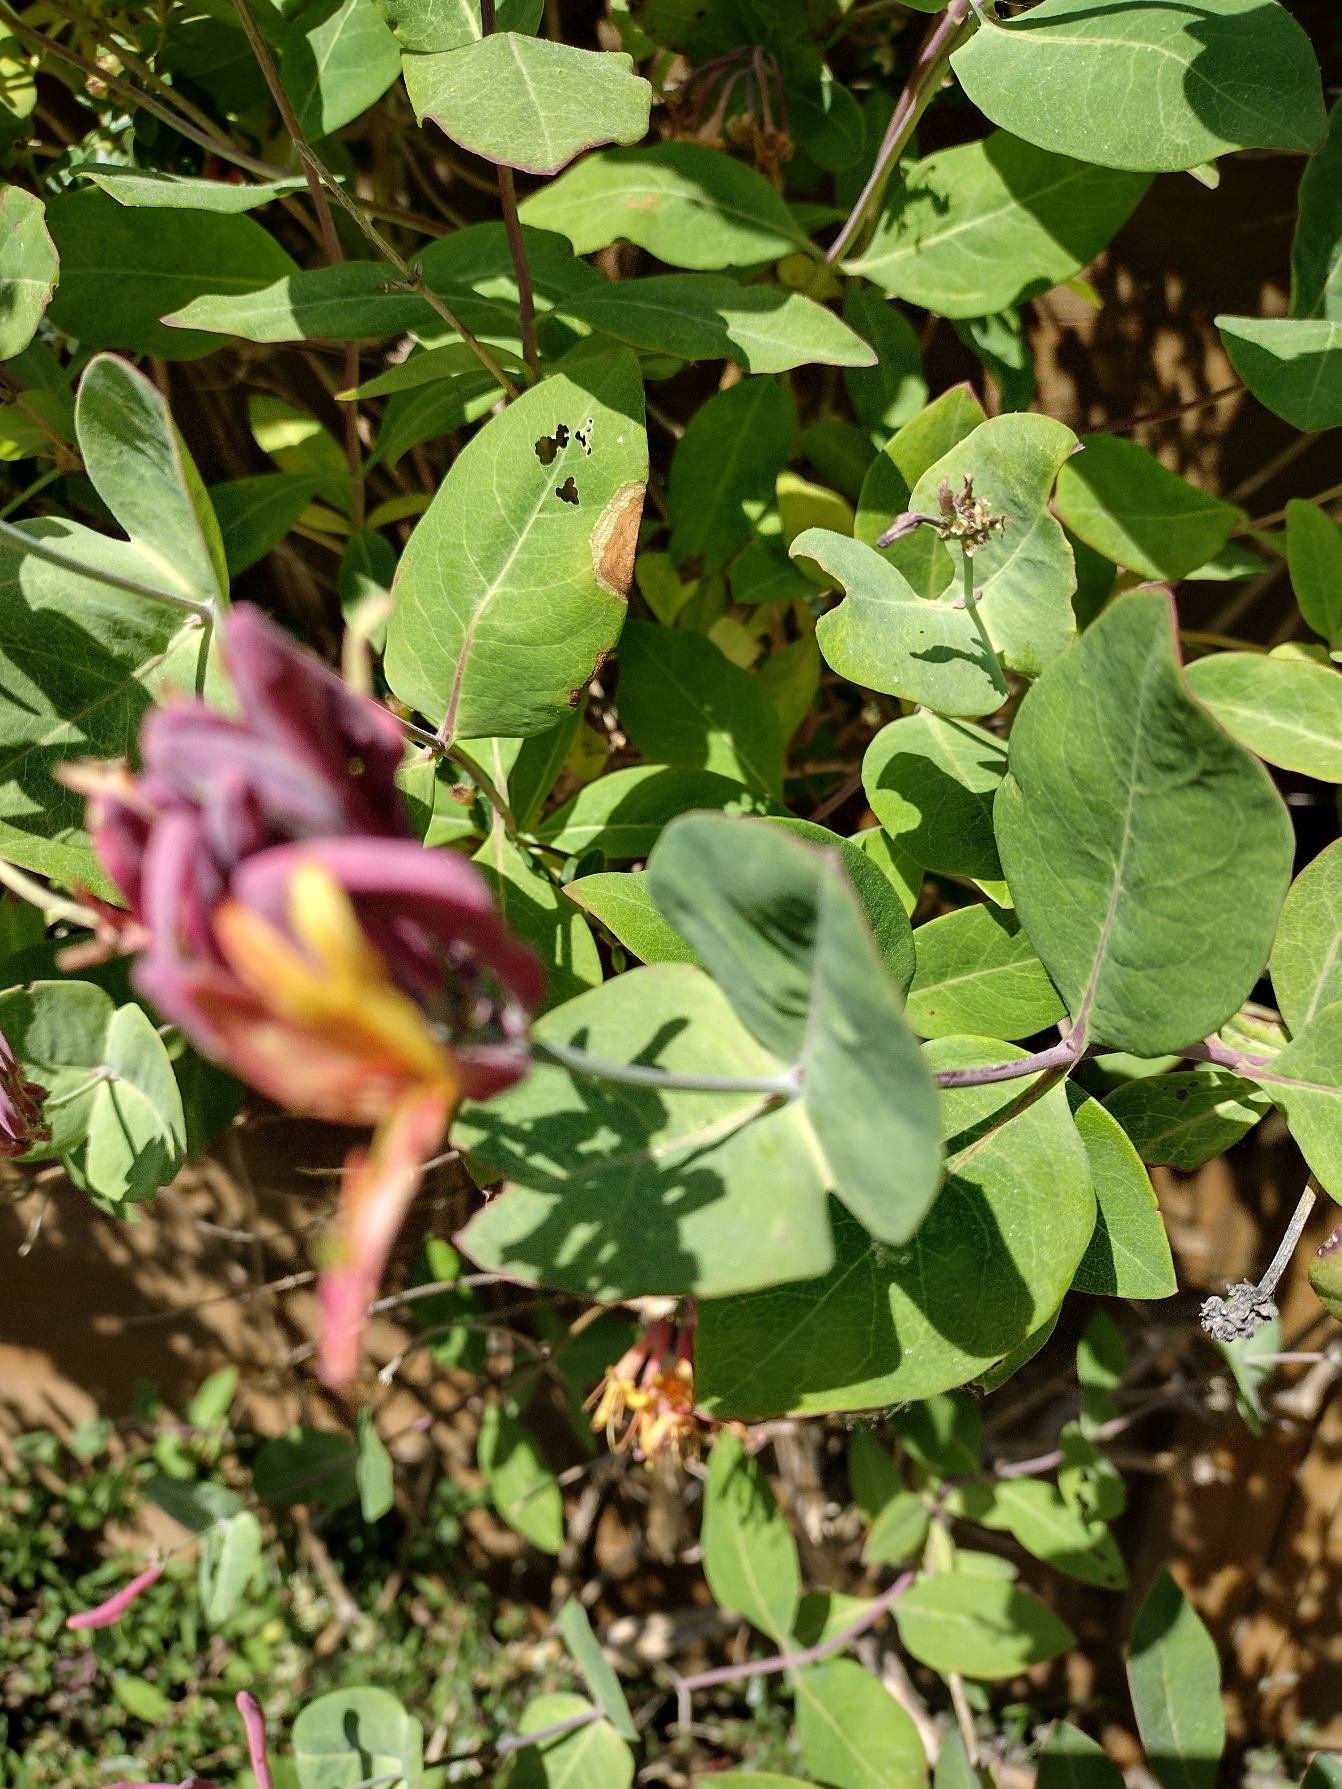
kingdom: Plantae
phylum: Tracheophyta
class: Magnoliopsida
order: Dipsacales
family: Caprifoliaceae
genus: Lonicera
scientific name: Lonicera caprifolium
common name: Ægte kaprifolie
